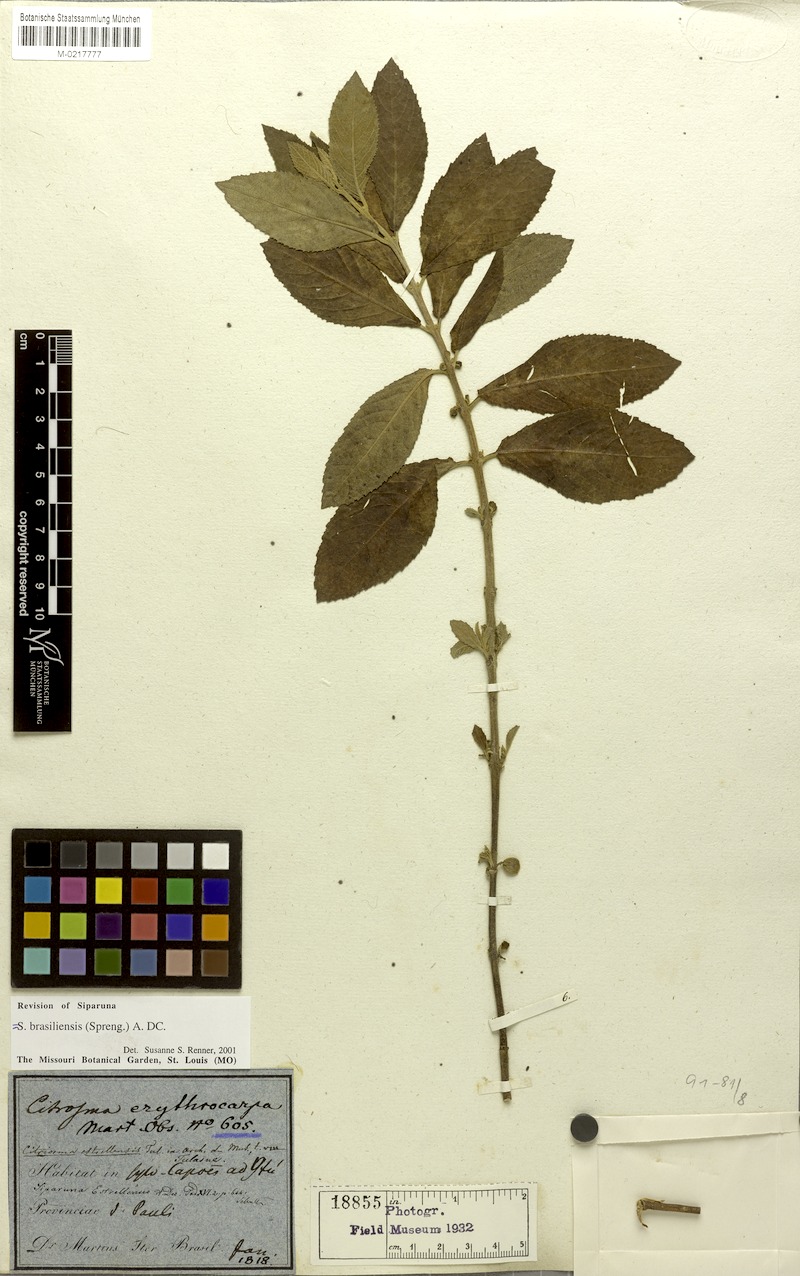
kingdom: Plantae
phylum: Tracheophyta
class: Magnoliopsida
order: Laurales
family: Siparunaceae
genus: Siparuna
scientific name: Siparuna brasiliensis
